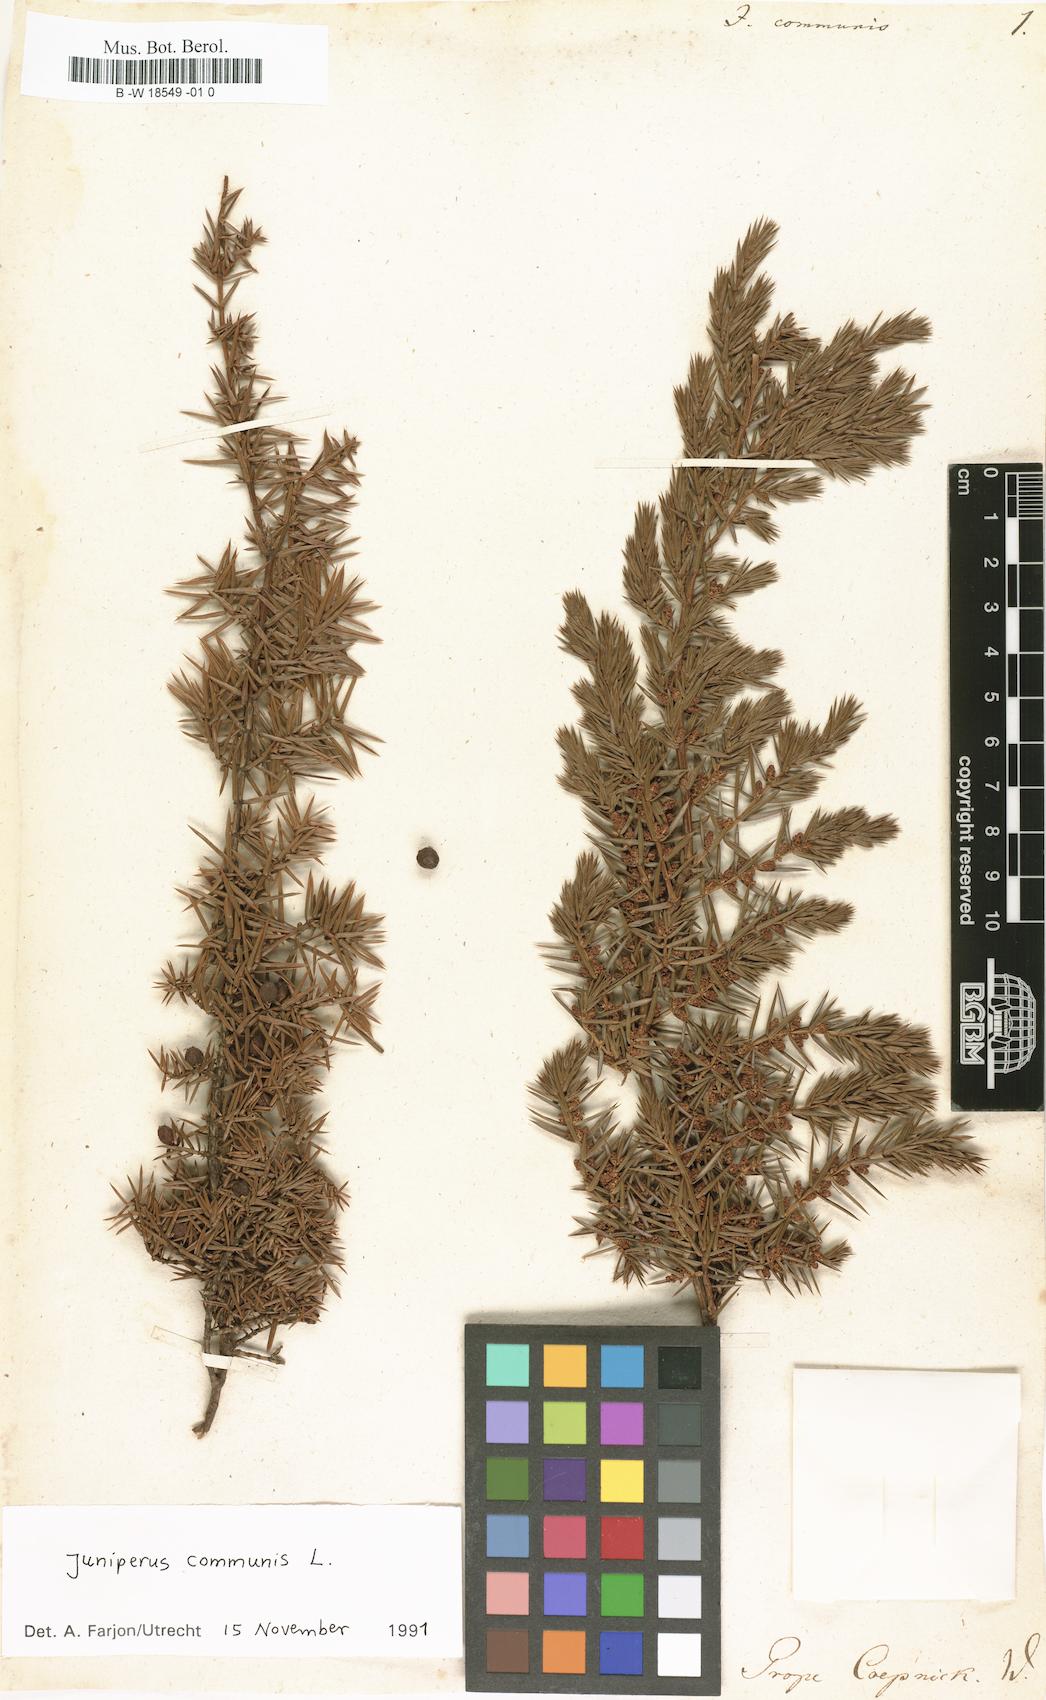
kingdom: Plantae
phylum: Tracheophyta
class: Pinopsida
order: Pinales
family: Cupressaceae
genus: Juniperus
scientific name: Juniperus communis
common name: Common juniper
